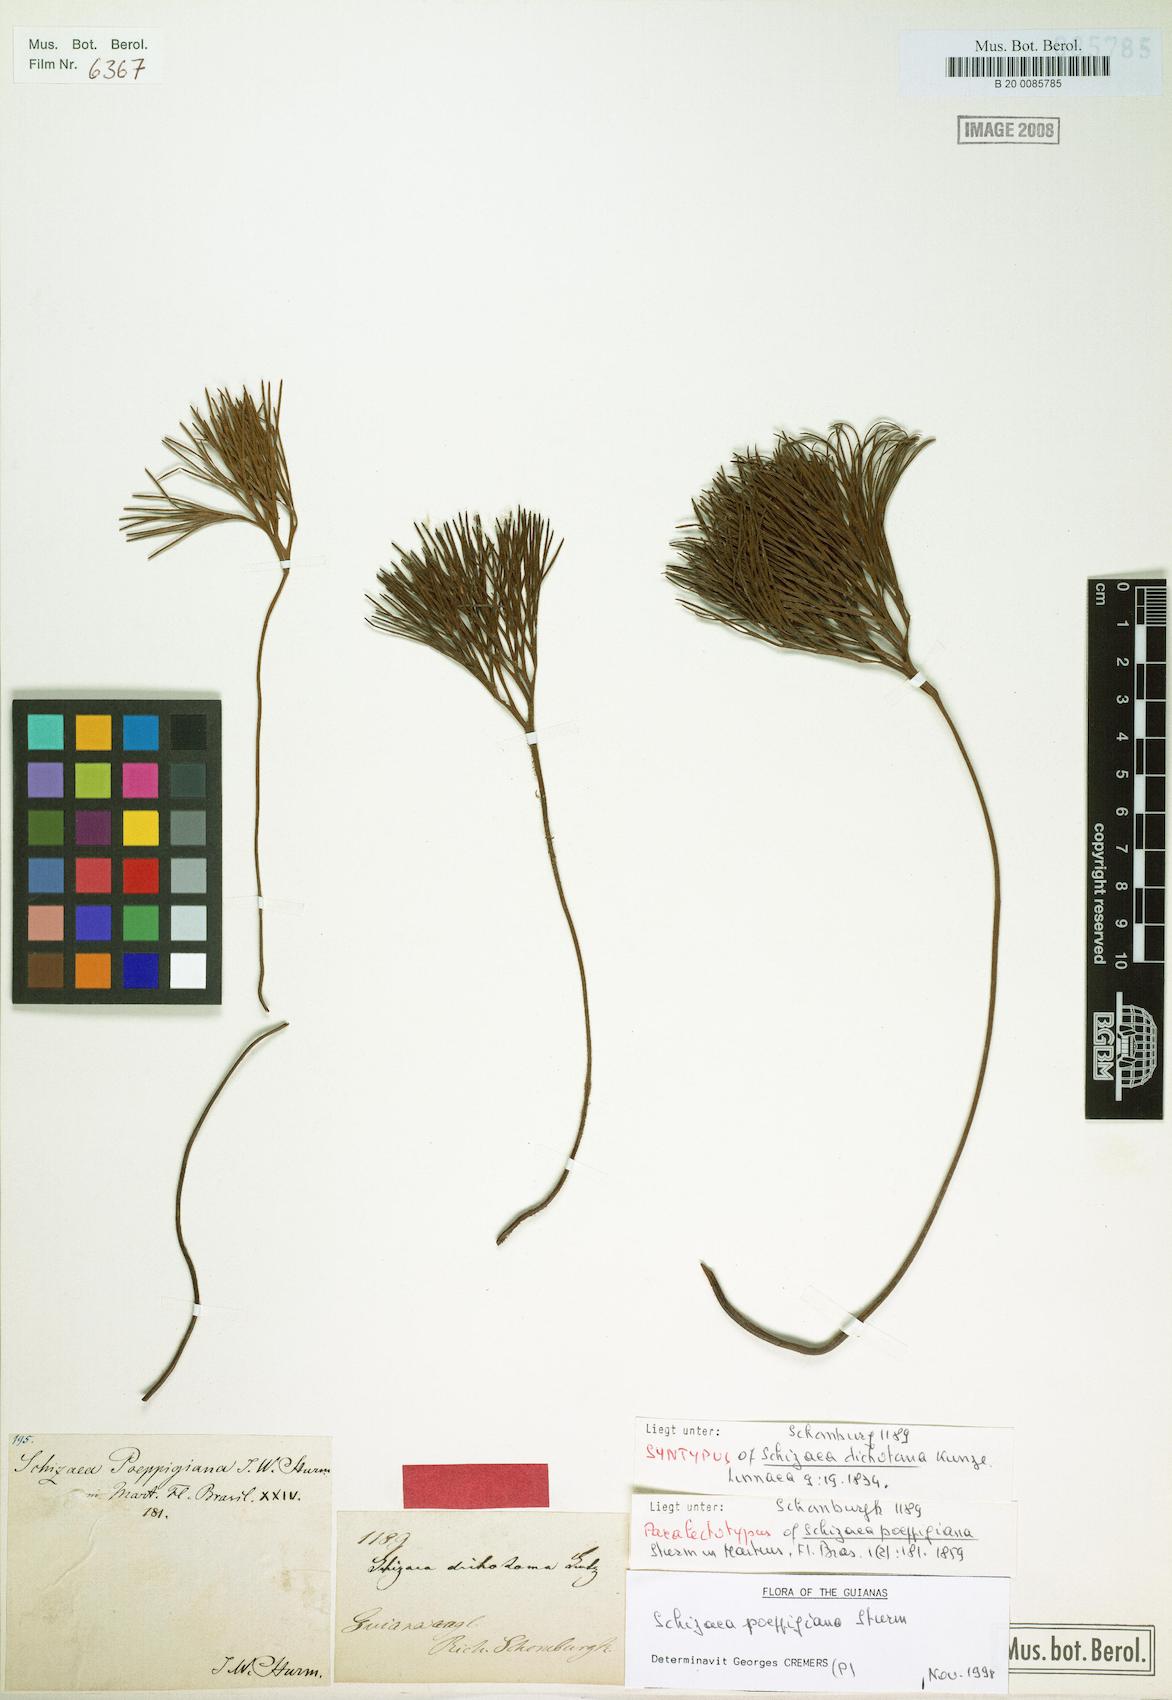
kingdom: Plantae
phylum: Tracheophyta
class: Polypodiopsida
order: Schizaeales
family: Schizaeaceae
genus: Schizaea
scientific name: Schizaea poeppigiana
